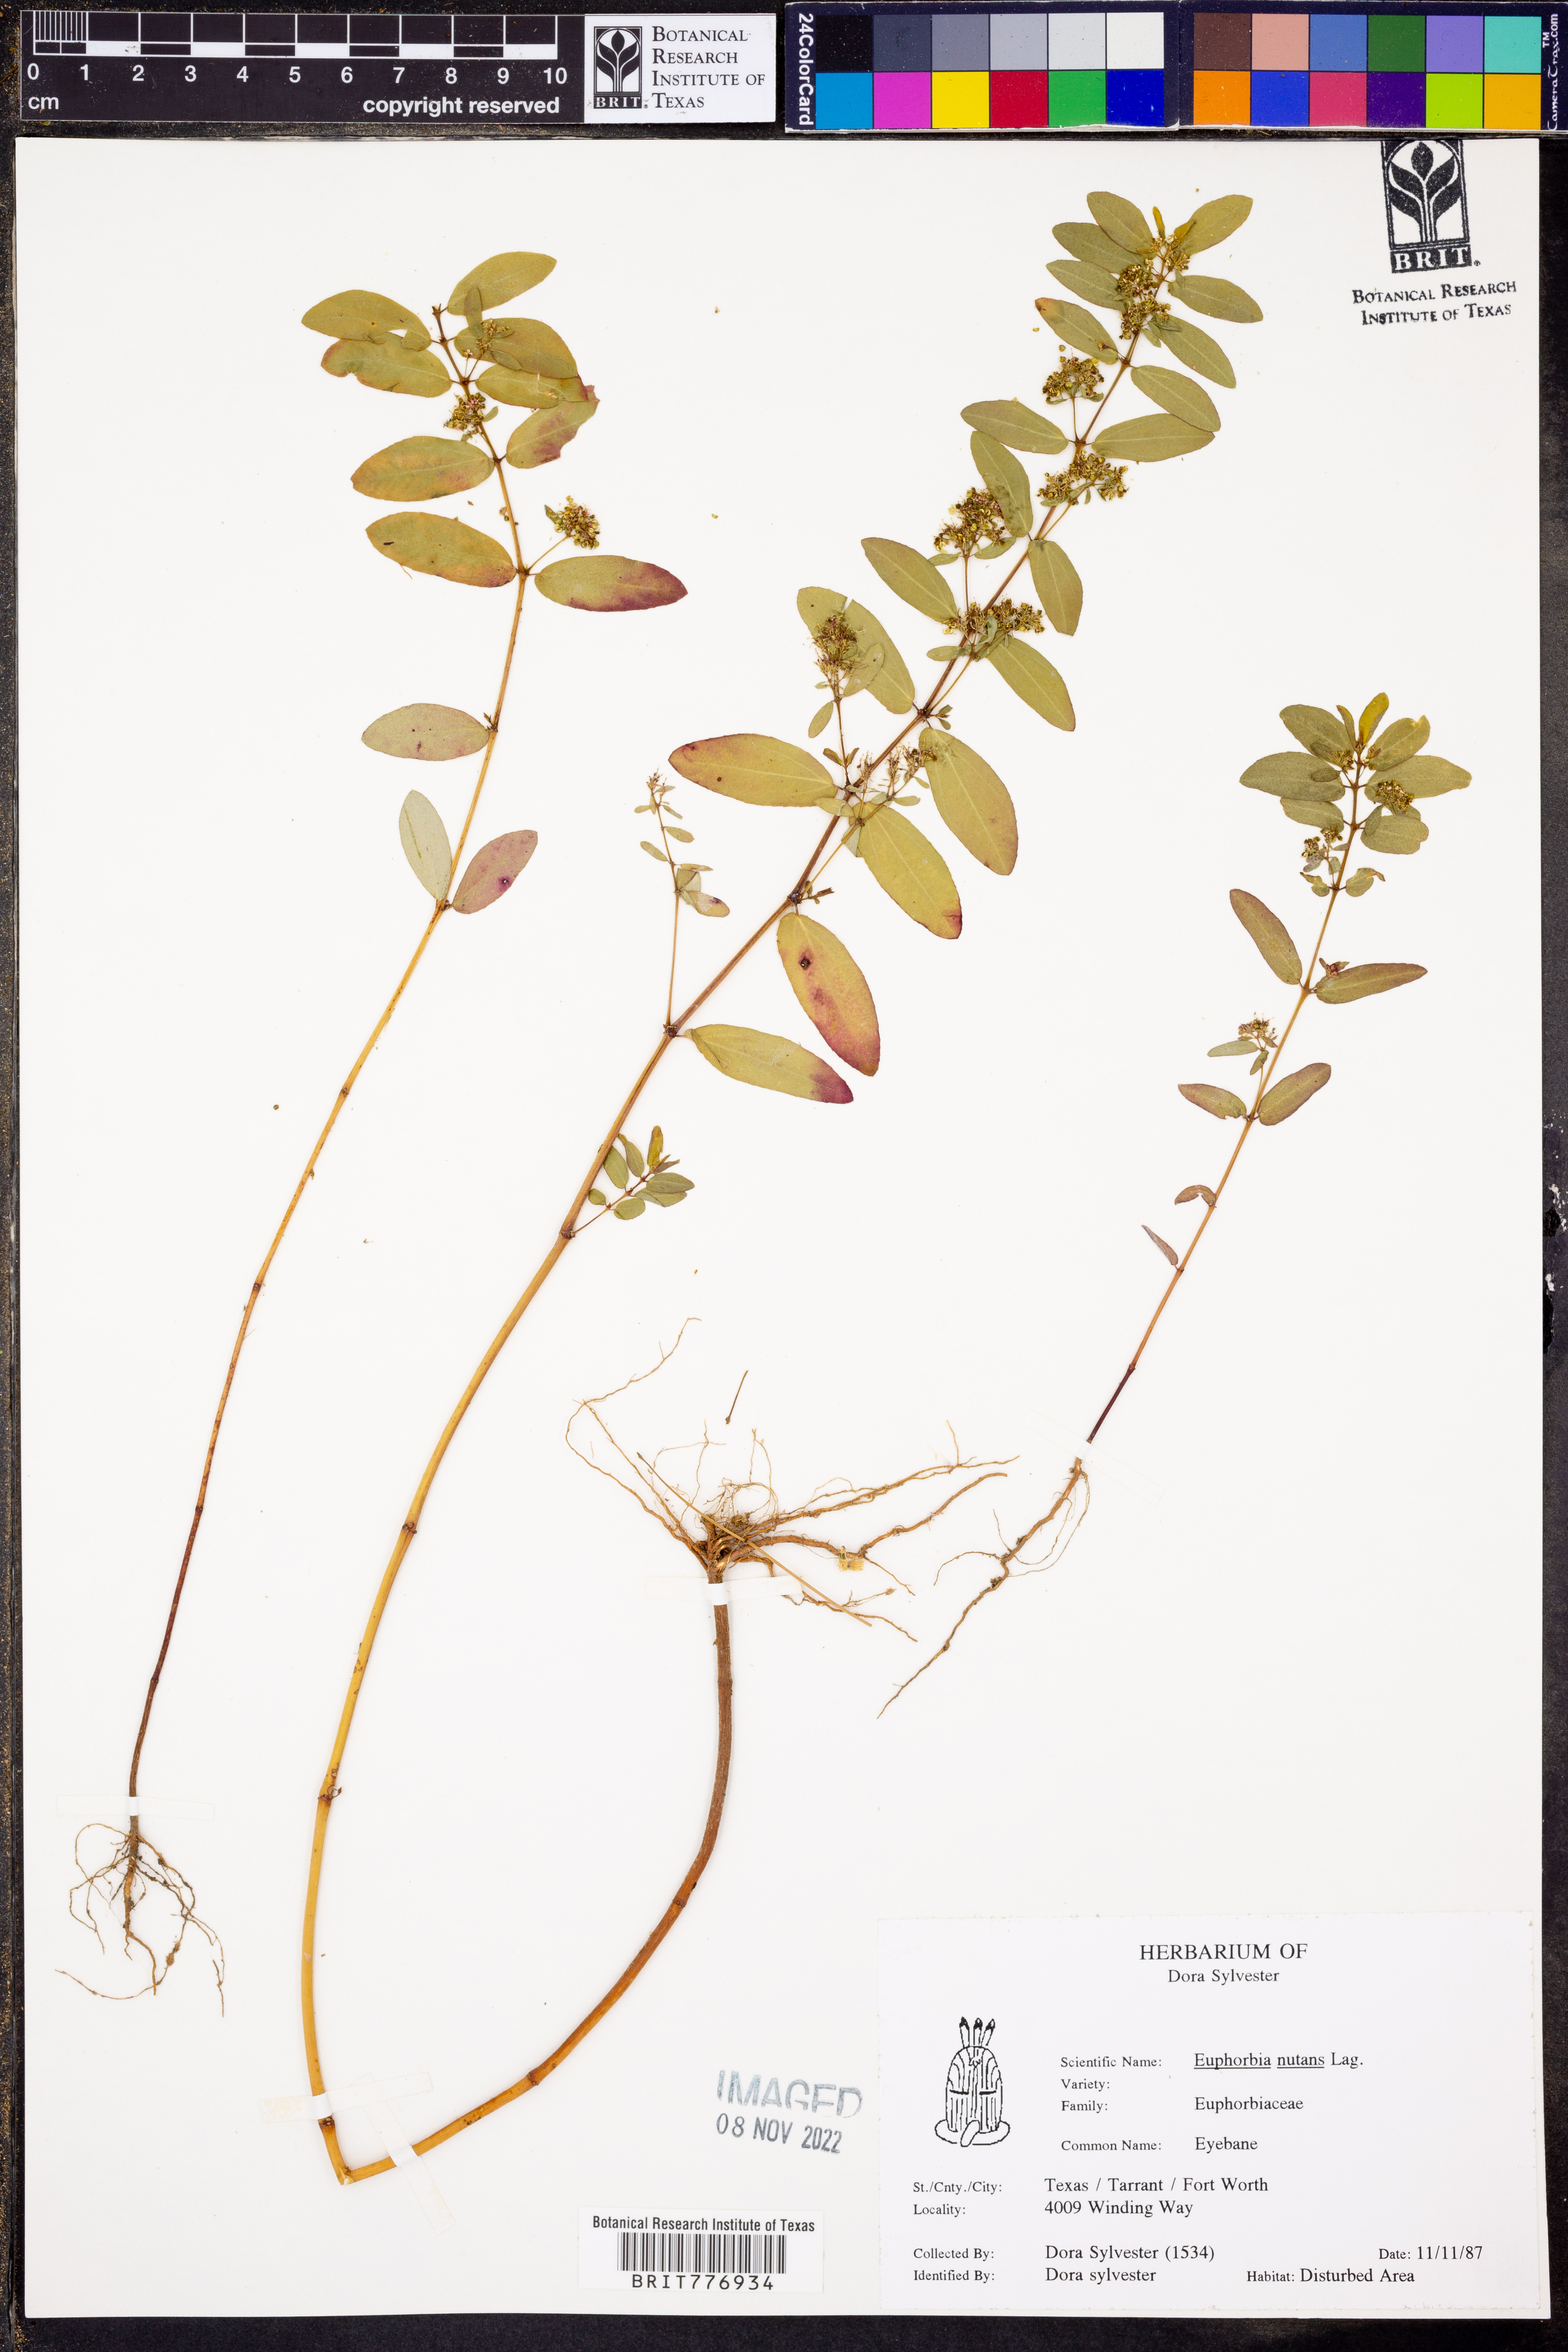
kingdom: Plantae
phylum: Tracheophyta
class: Magnoliopsida
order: Malpighiales
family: Euphorbiaceae
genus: Euphorbia
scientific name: Euphorbia nutans
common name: Eyebane
